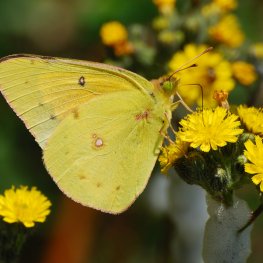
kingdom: Animalia
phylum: Arthropoda
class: Insecta
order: Lepidoptera
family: Pieridae
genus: Colias
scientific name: Colias eurytheme
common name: Orange Sulphur
